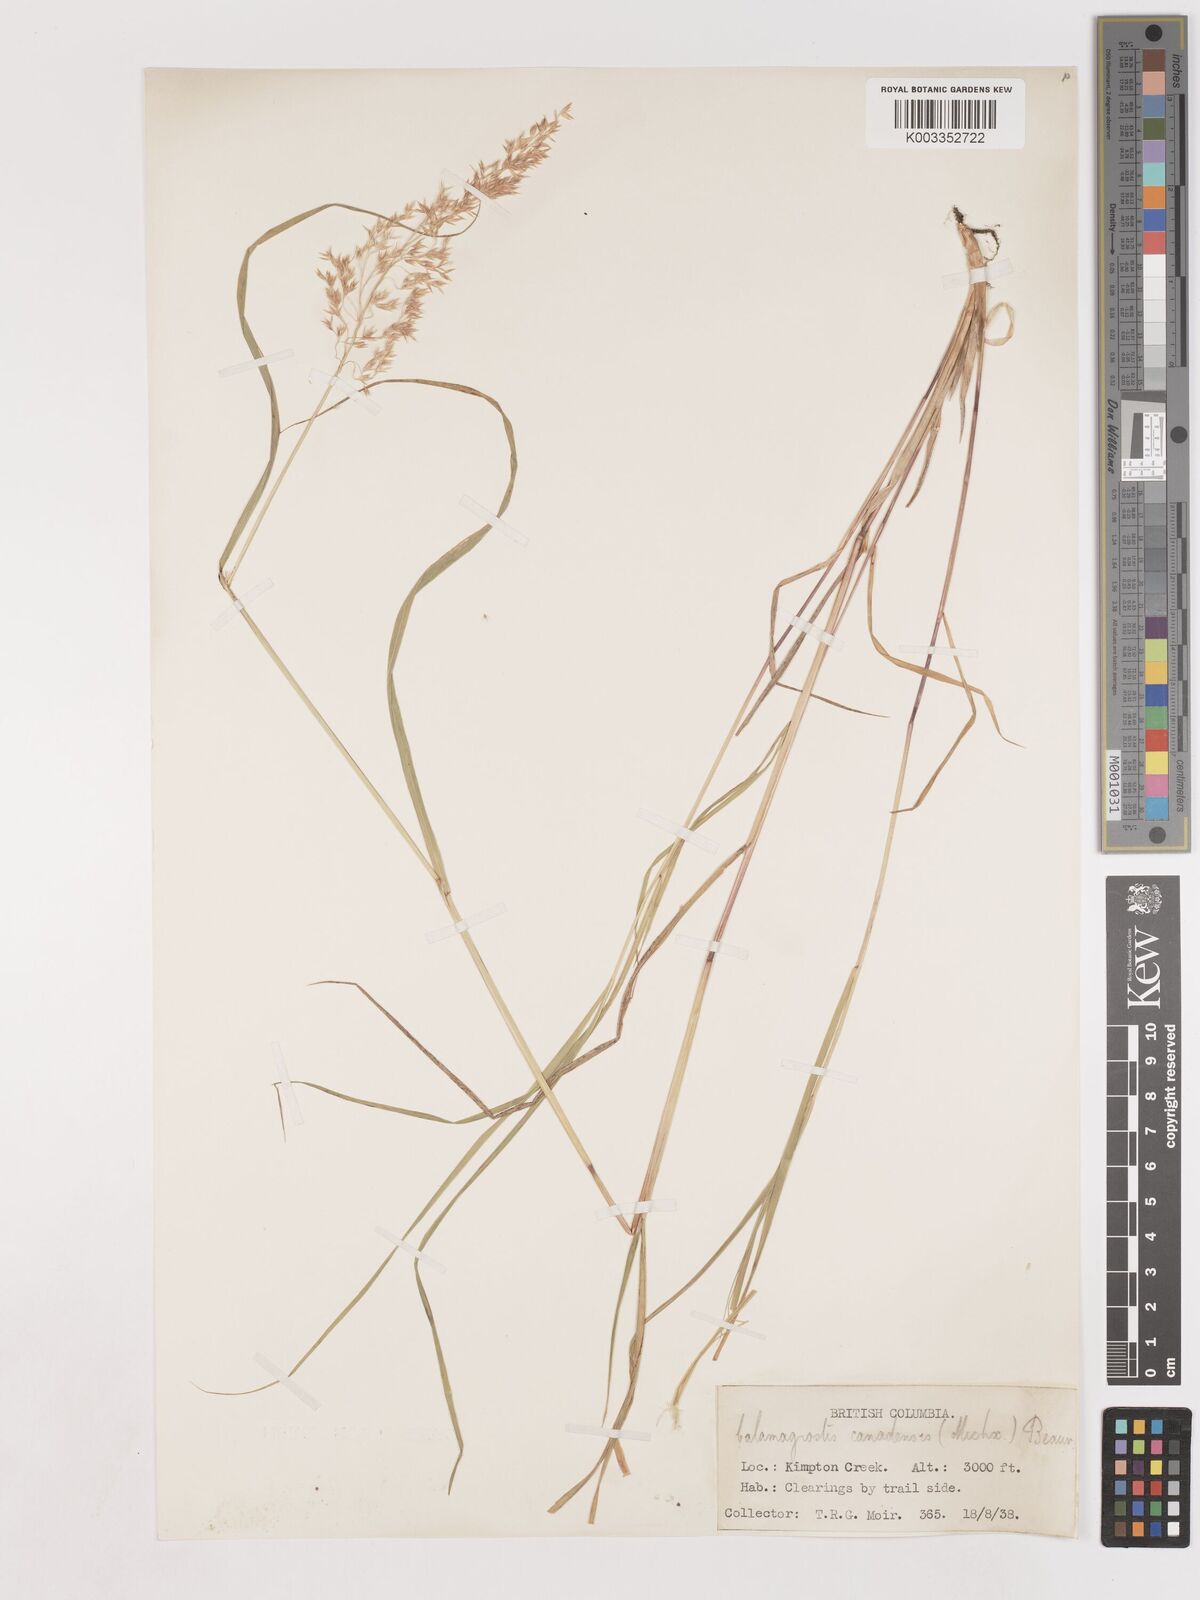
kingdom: Plantae
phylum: Tracheophyta
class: Liliopsida
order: Poales
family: Poaceae
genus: Calamagrostis
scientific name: Calamagrostis canadensis
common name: Canada bluejoint
